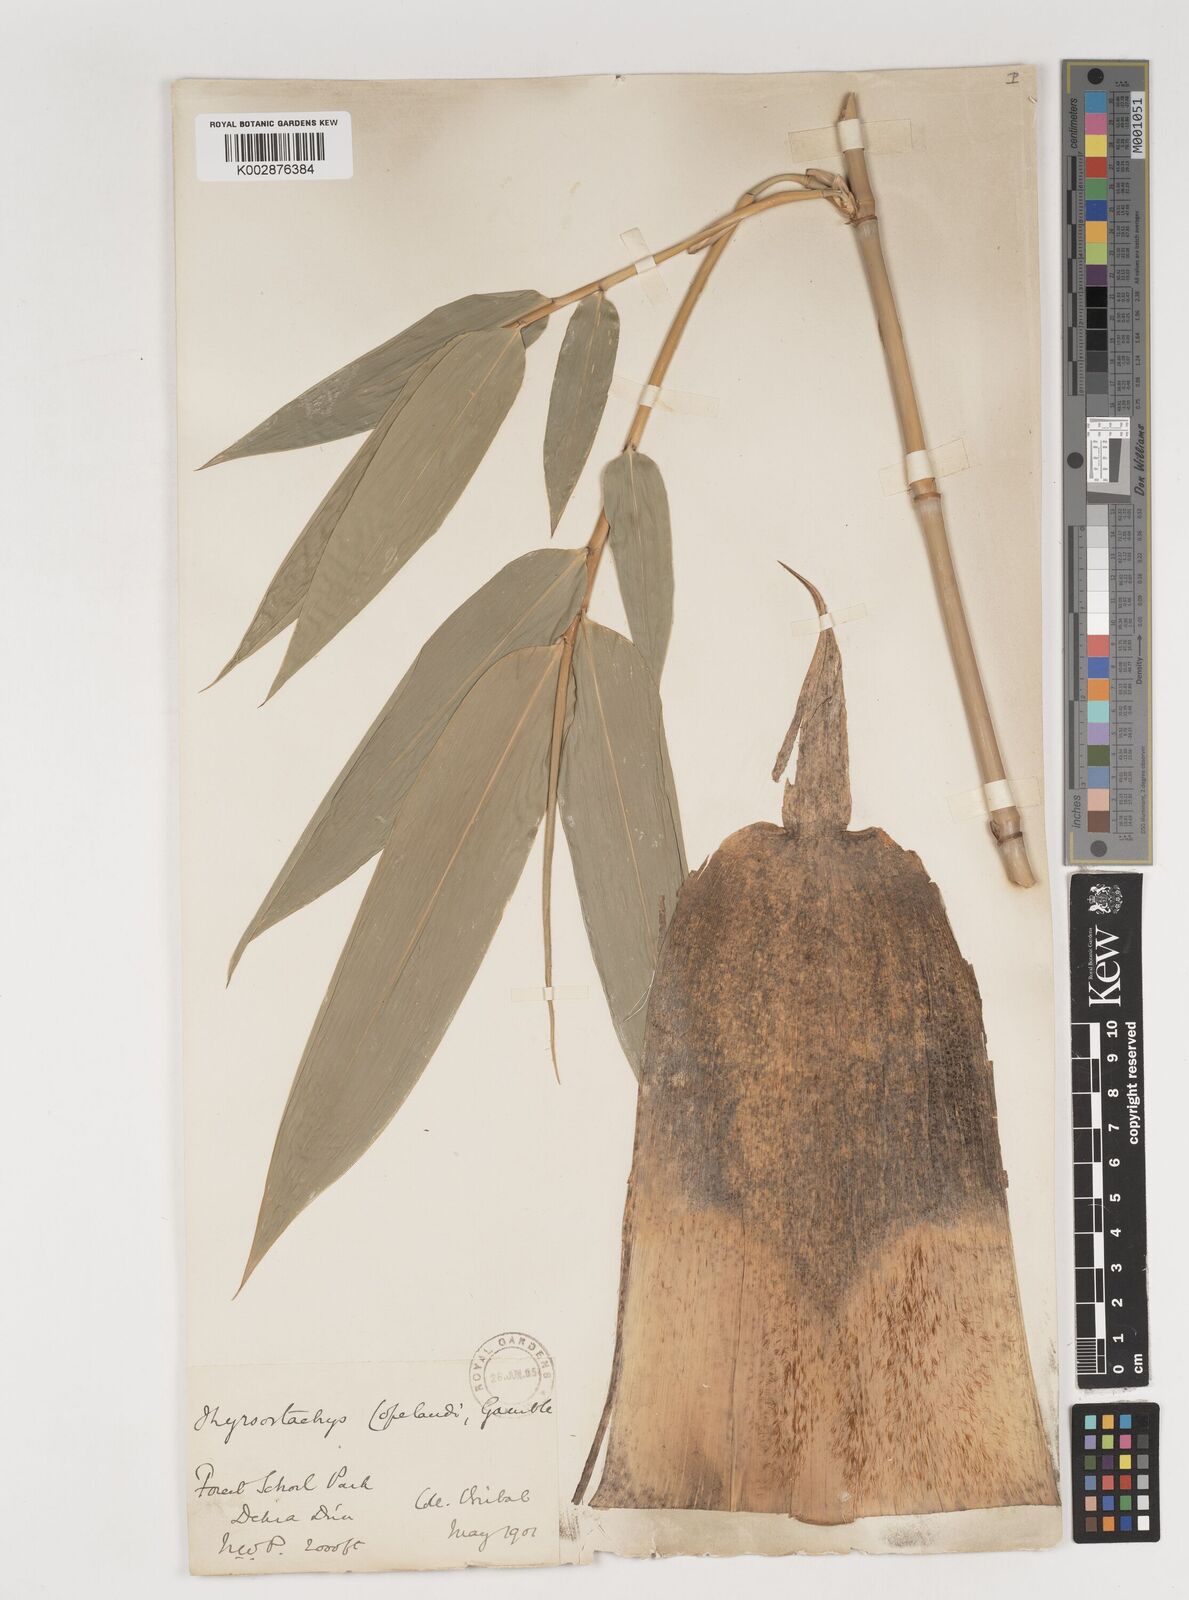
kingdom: Plantae
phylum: Tracheophyta
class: Liliopsida
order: Poales
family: Poaceae
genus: Bambusa
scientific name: Bambusa copelandii
